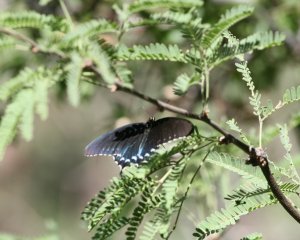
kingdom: Animalia
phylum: Arthropoda
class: Insecta
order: Lepidoptera
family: Papilionidae
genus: Battus
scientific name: Battus philenor
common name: Pipevine Swallowtail
